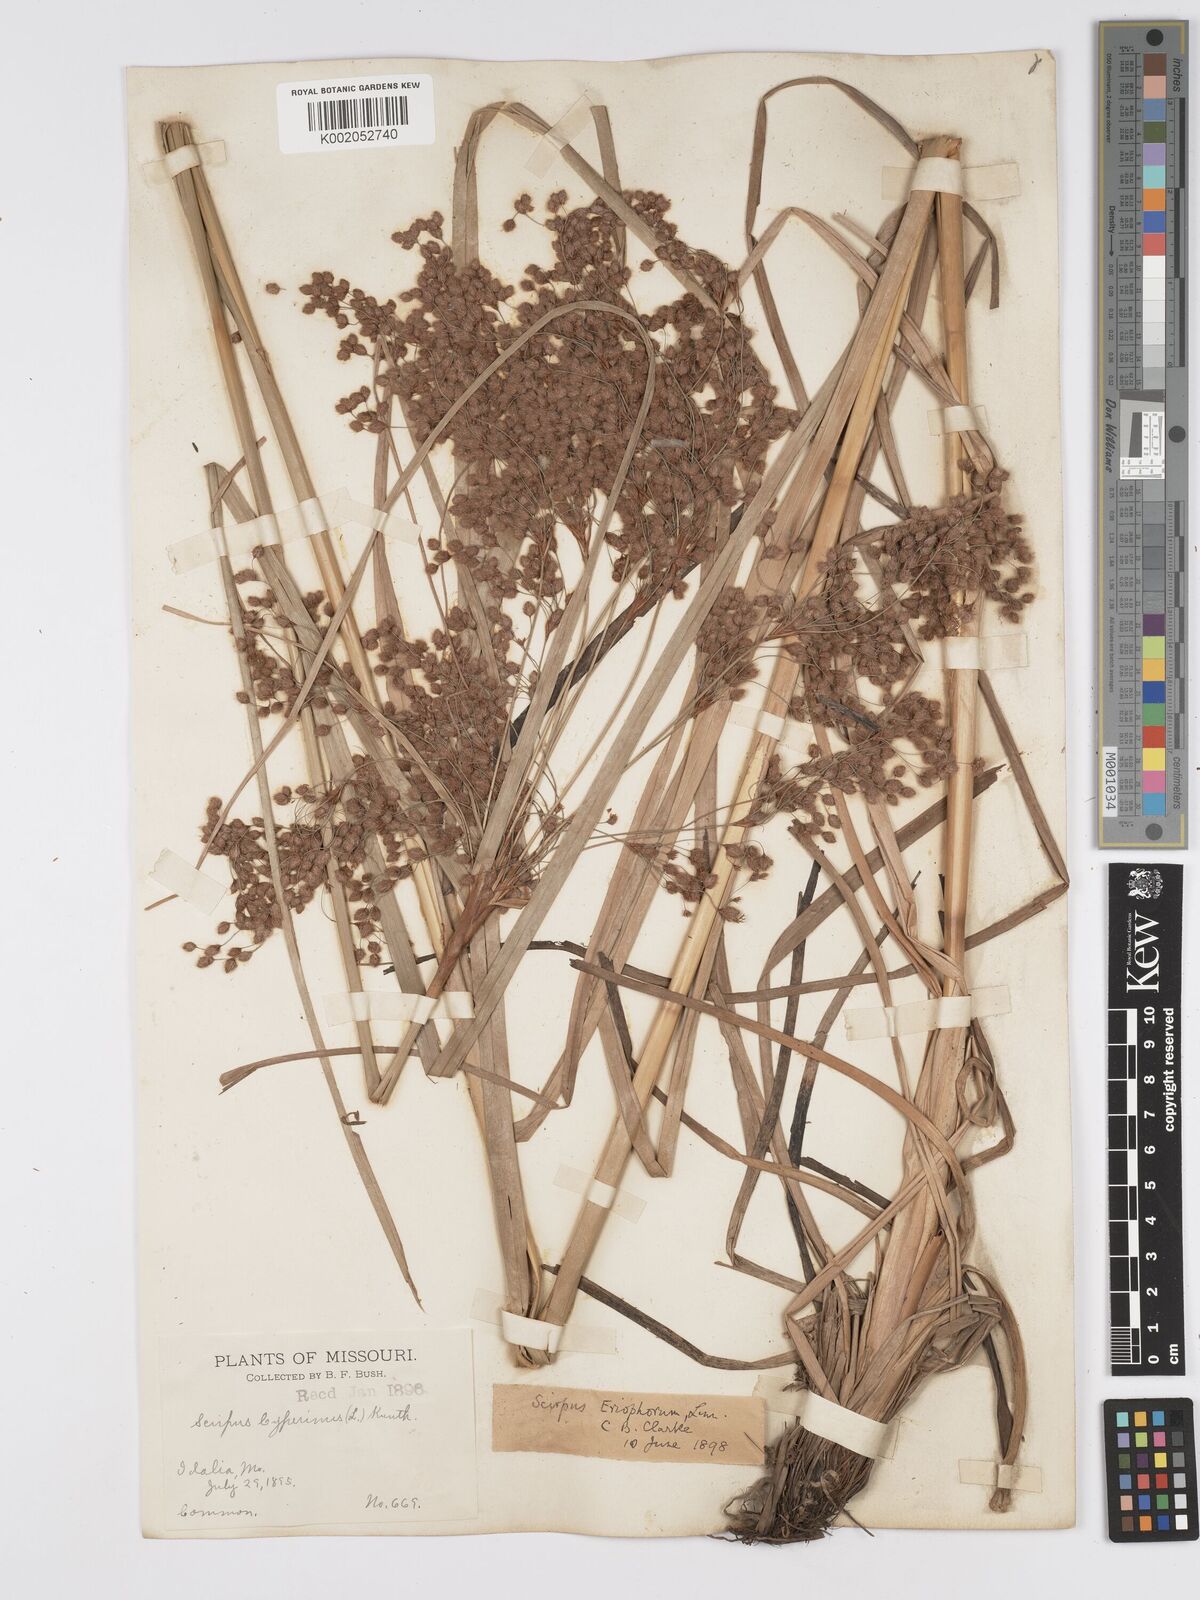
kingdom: Plantae
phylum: Tracheophyta
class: Liliopsida
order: Poales
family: Cyperaceae
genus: Scirpus
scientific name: Scirpus cyperinus
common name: Black-sheathed bulrush
